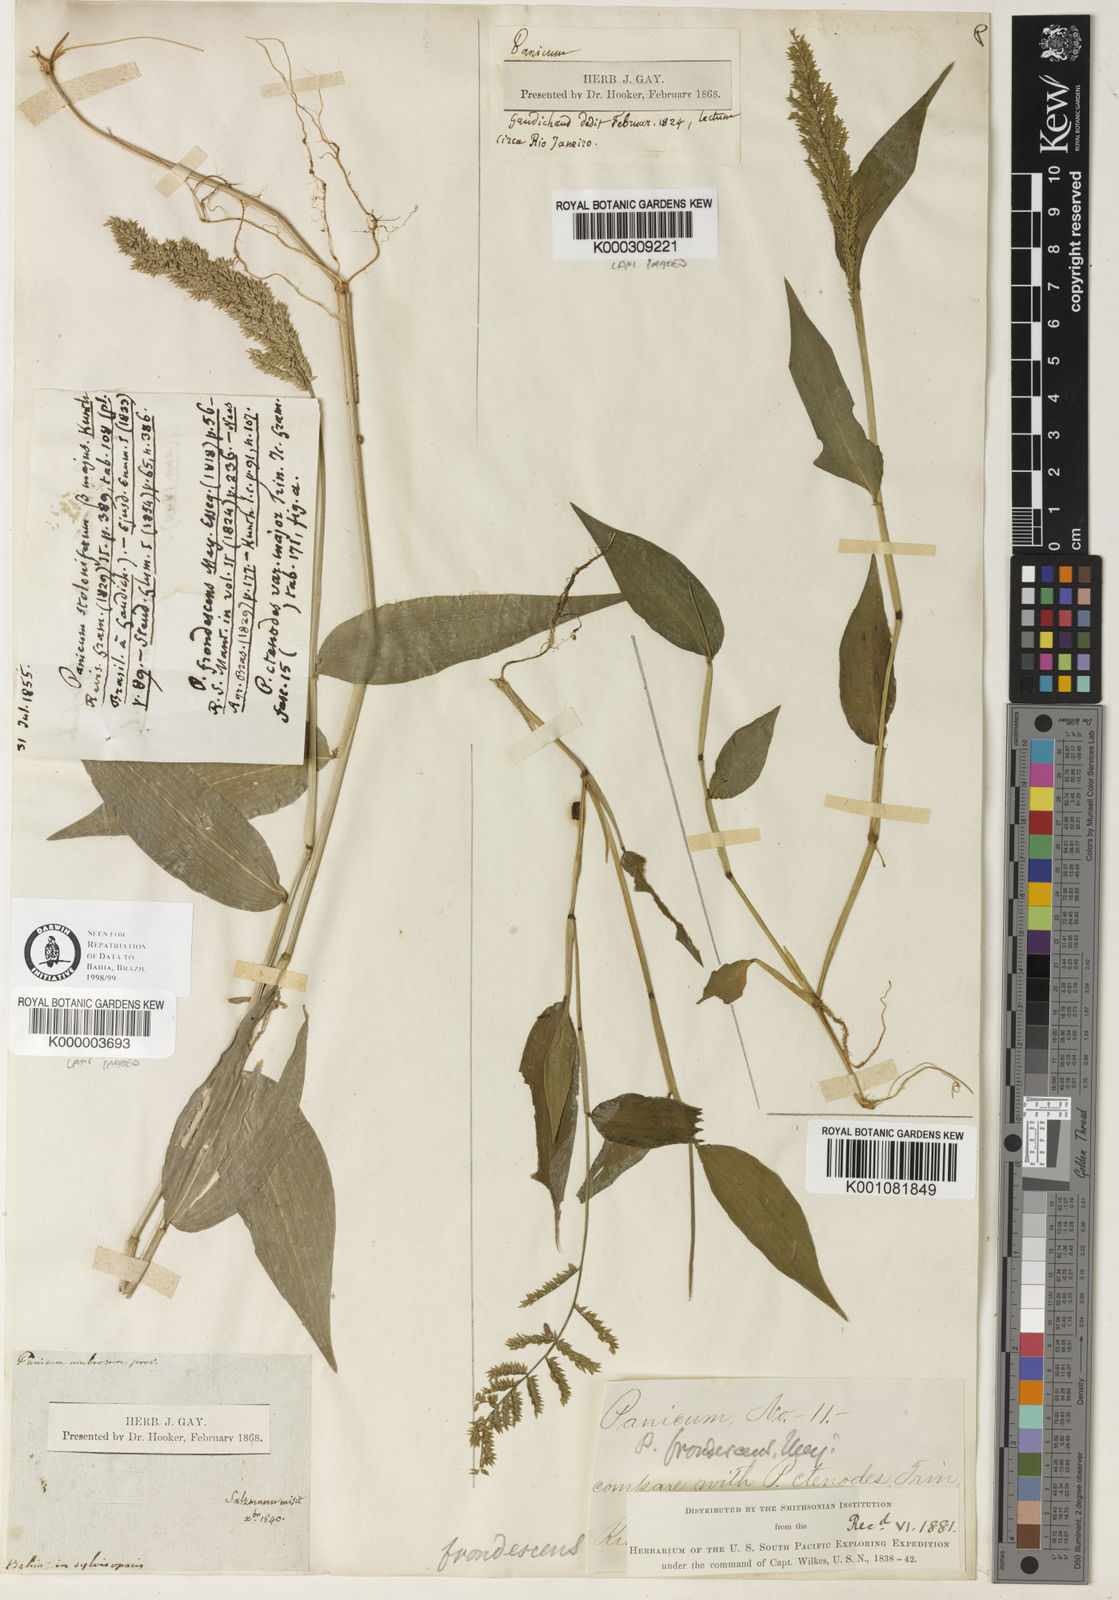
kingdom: Plantae
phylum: Tracheophyta
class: Liliopsida
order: Poales
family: Poaceae
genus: Ocellochloa
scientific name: Ocellochloa stolonifera
